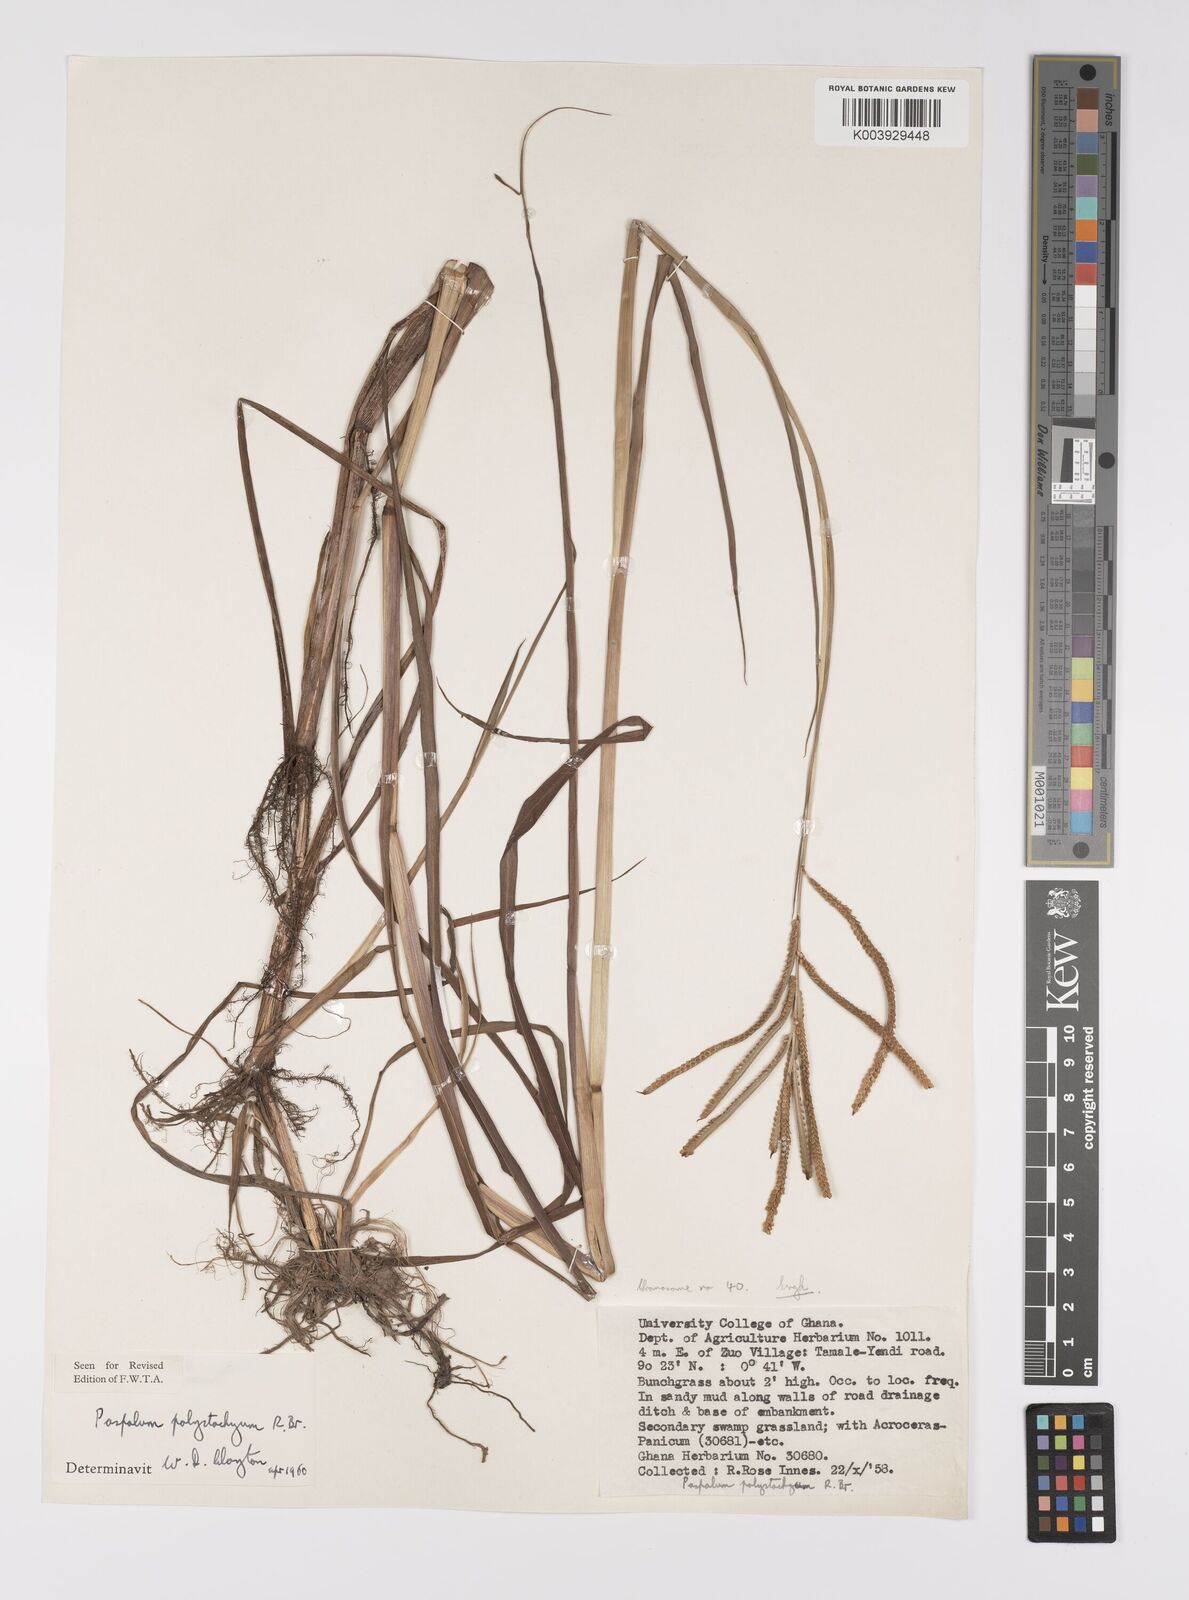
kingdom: Plantae
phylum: Tracheophyta
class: Liliopsida
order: Poales
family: Poaceae
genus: Paspalum
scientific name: Paspalum scrobiculatum
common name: Kodo millet
